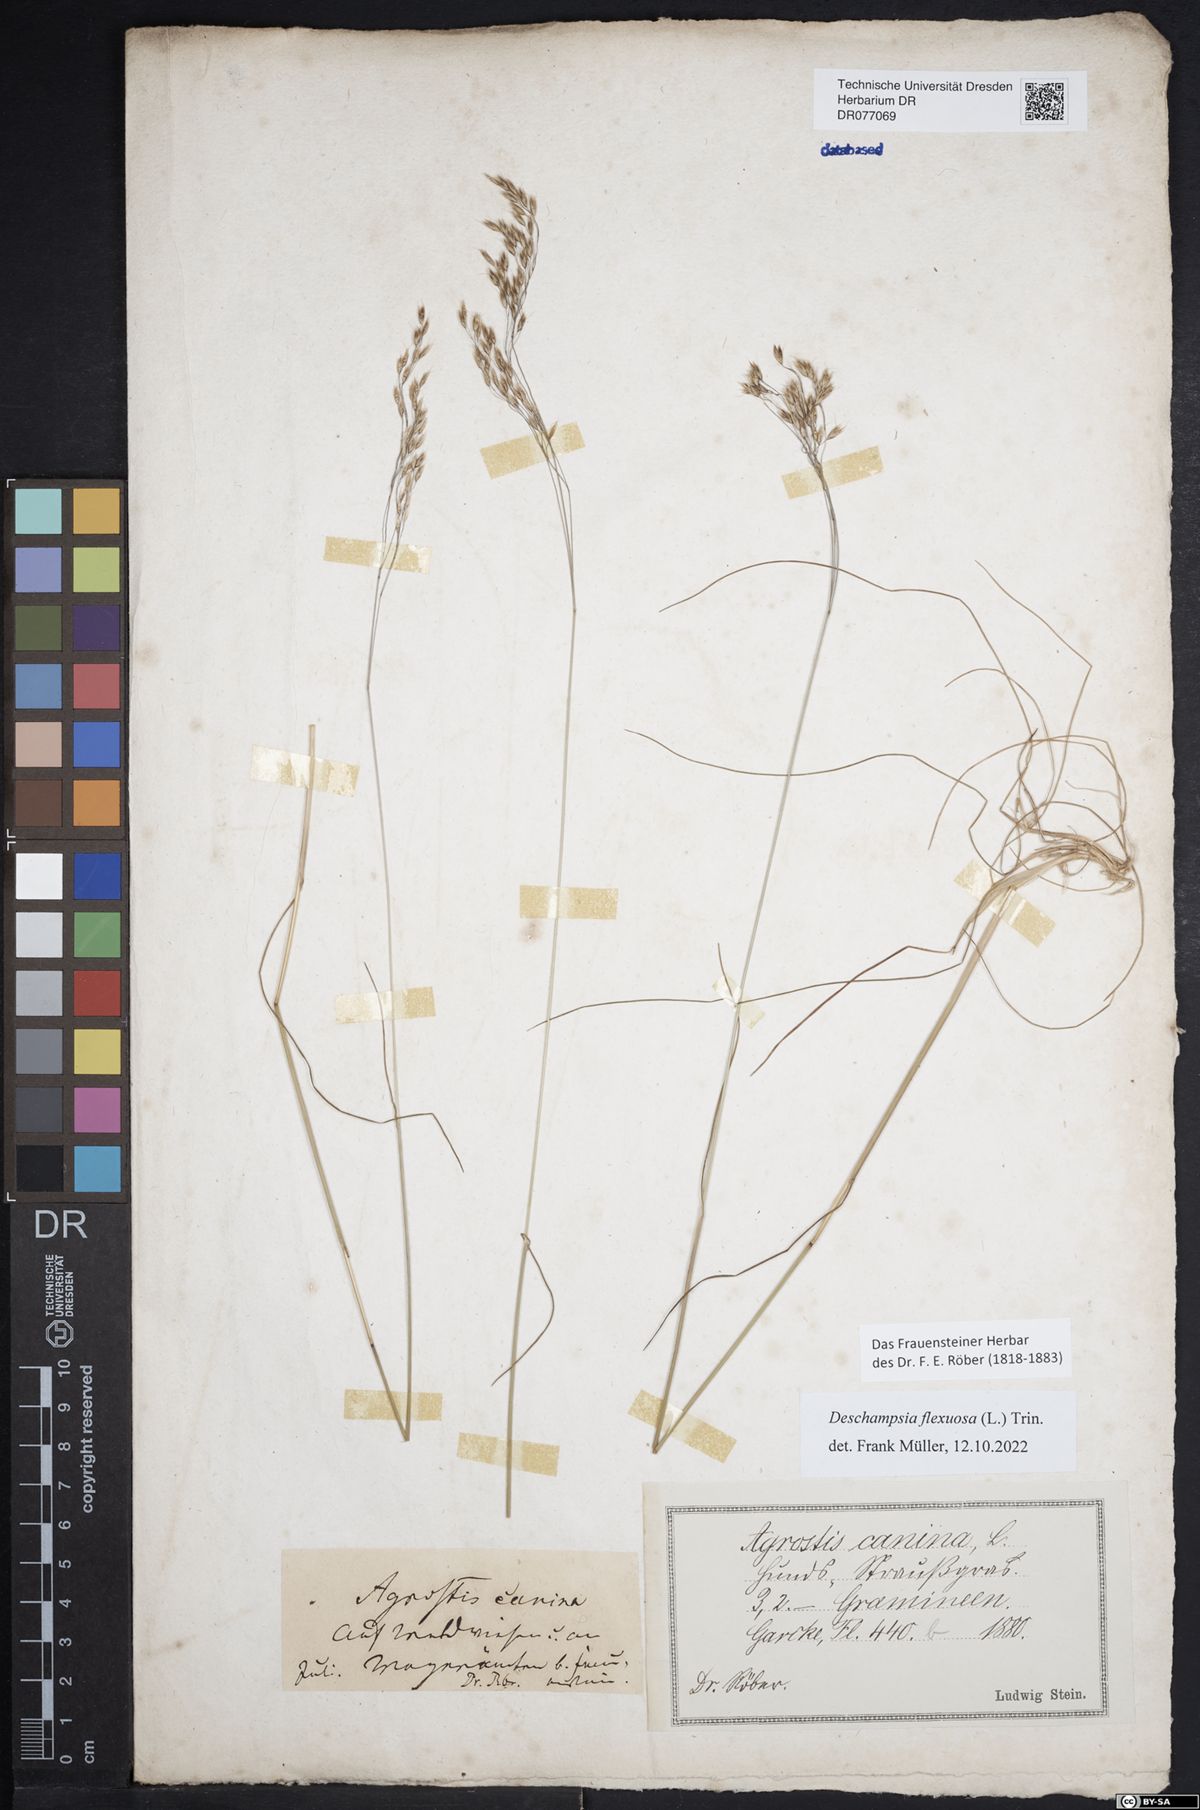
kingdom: Plantae
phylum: Tracheophyta
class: Liliopsida
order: Poales
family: Poaceae
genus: Avenella
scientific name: Avenella flexuosa
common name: Wavy hairgrass
